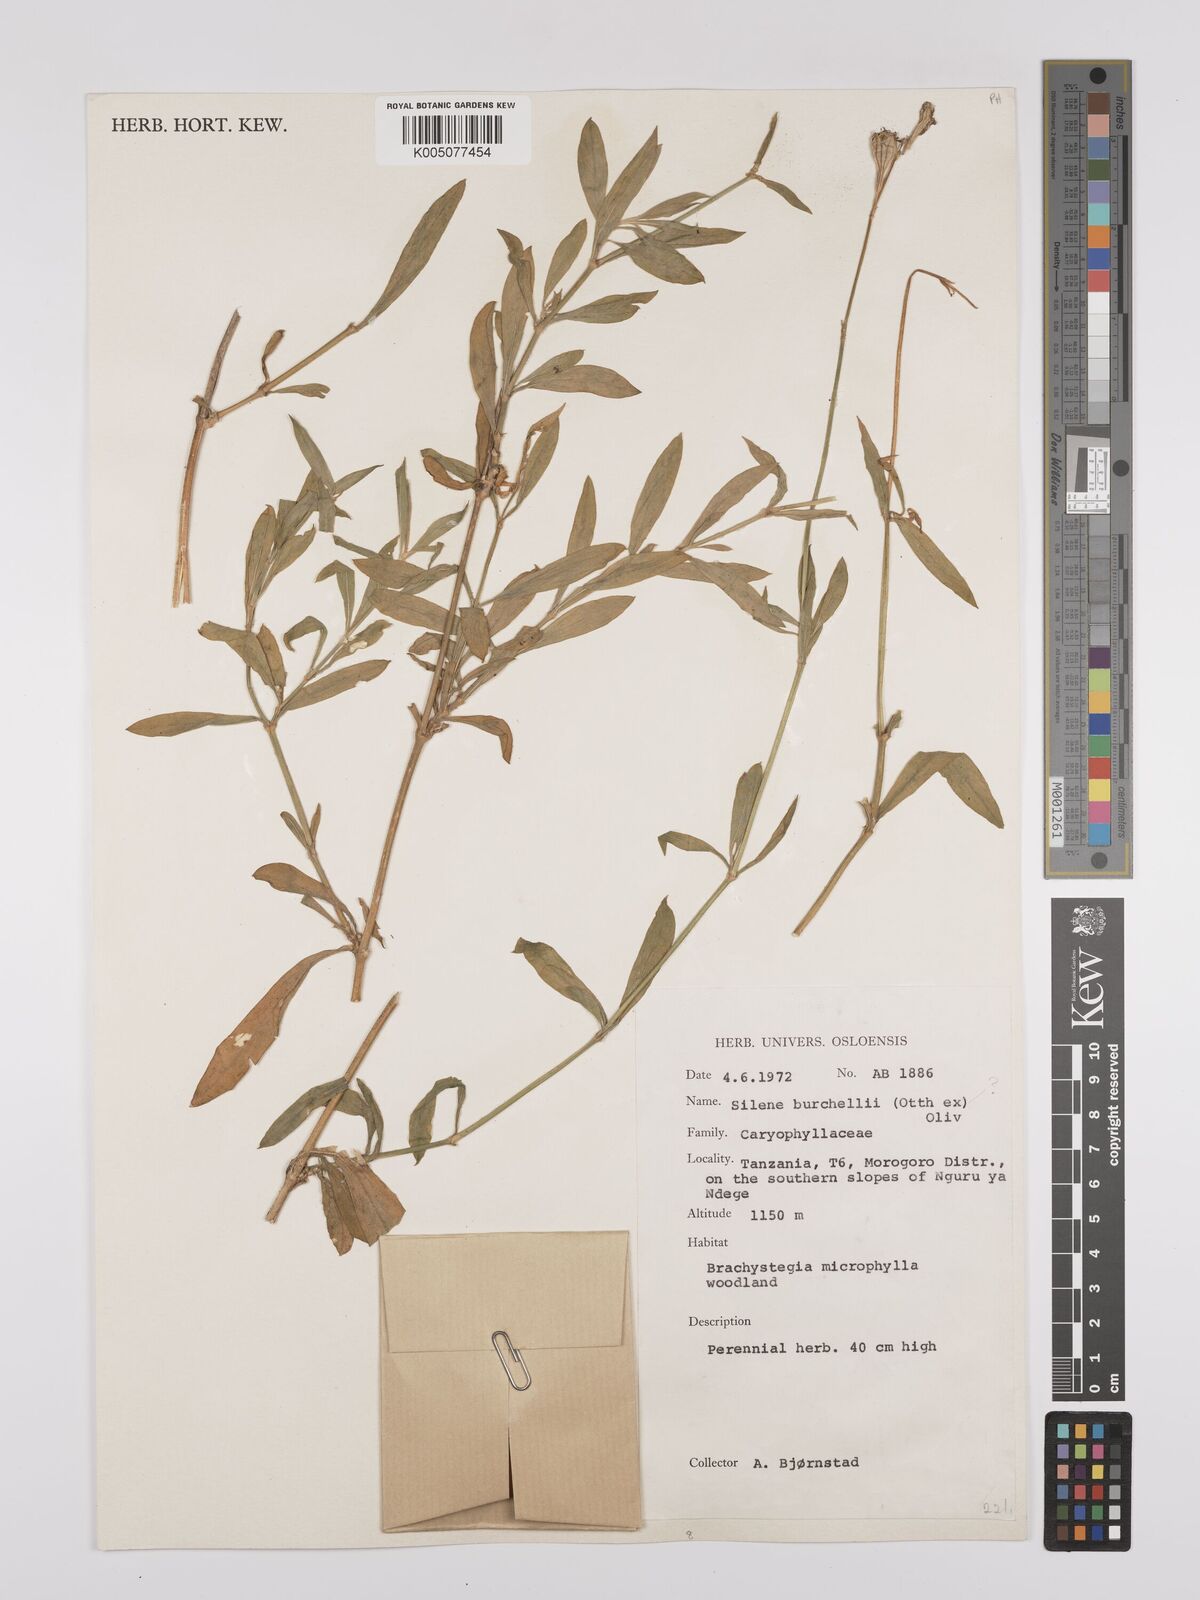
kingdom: Plantae
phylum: Tracheophyta
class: Magnoliopsida
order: Caryophyllales
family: Caryophyllaceae
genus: Silene
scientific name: Silene burchellii
